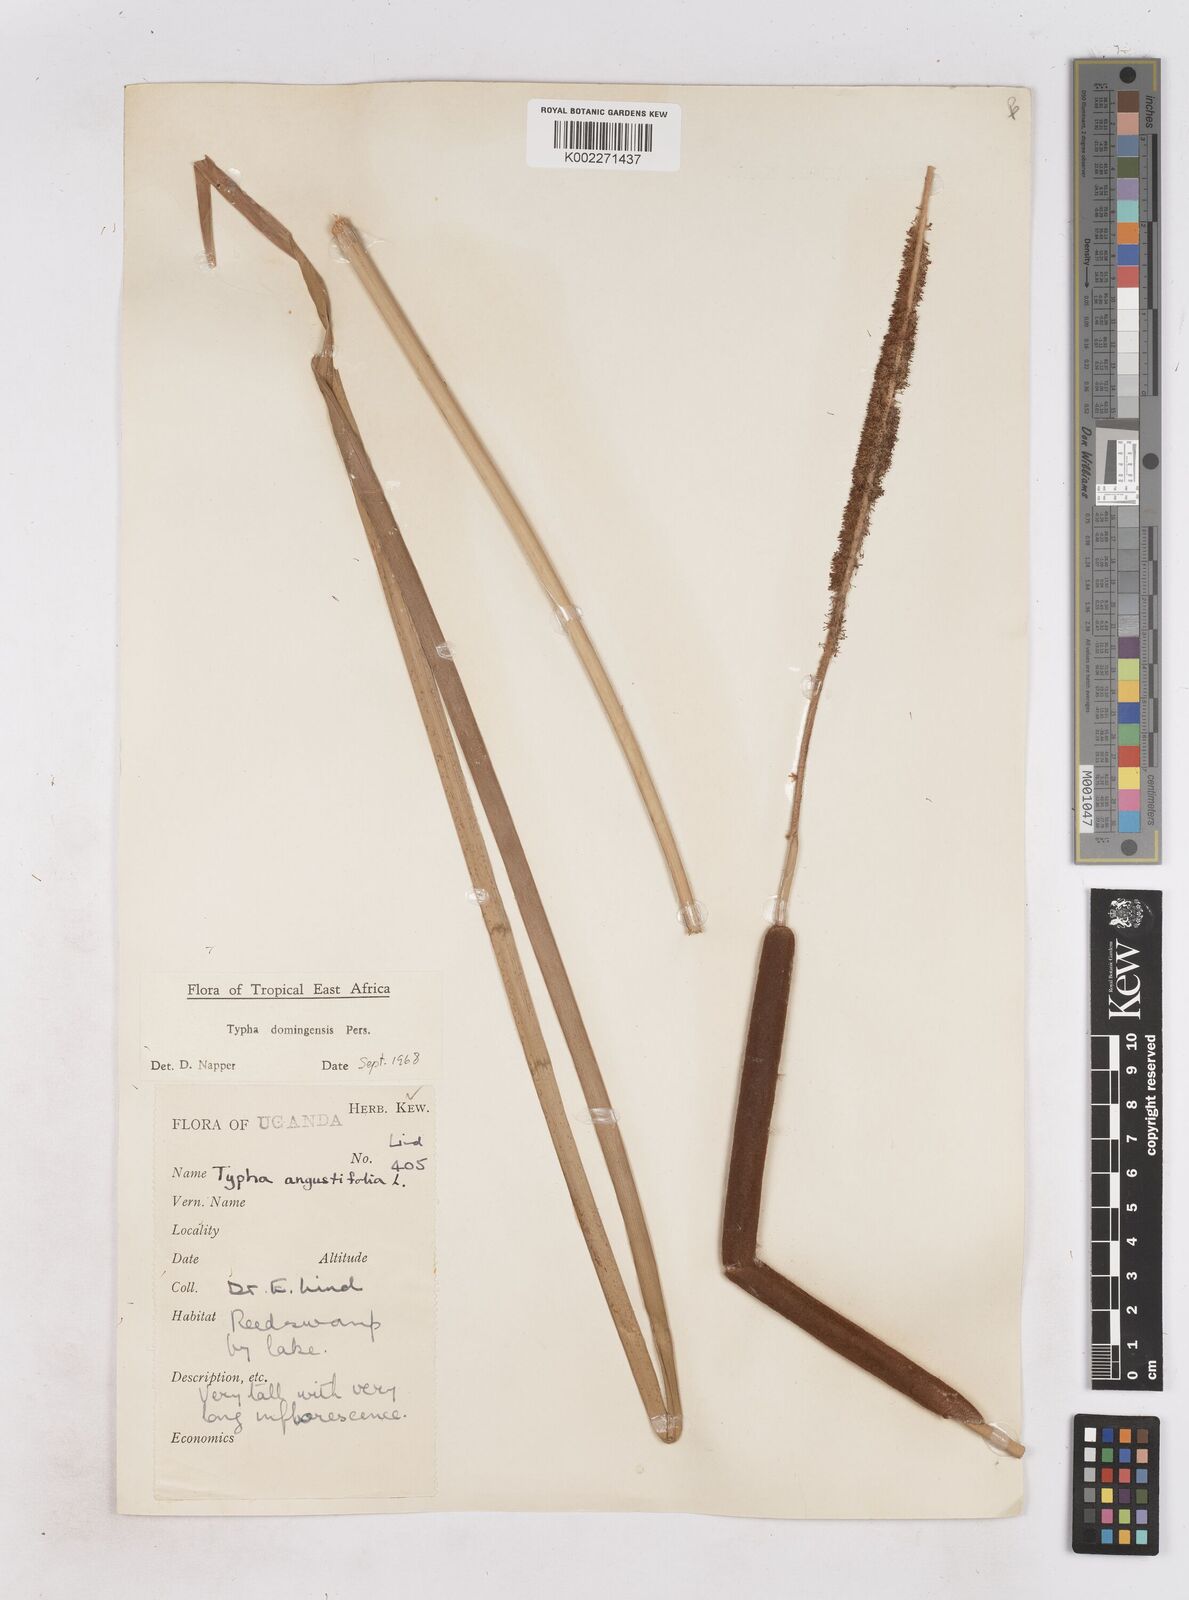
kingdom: Plantae
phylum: Tracheophyta
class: Liliopsida
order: Poales
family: Typhaceae
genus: Typha
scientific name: Typha domingensis
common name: Southern cattail
